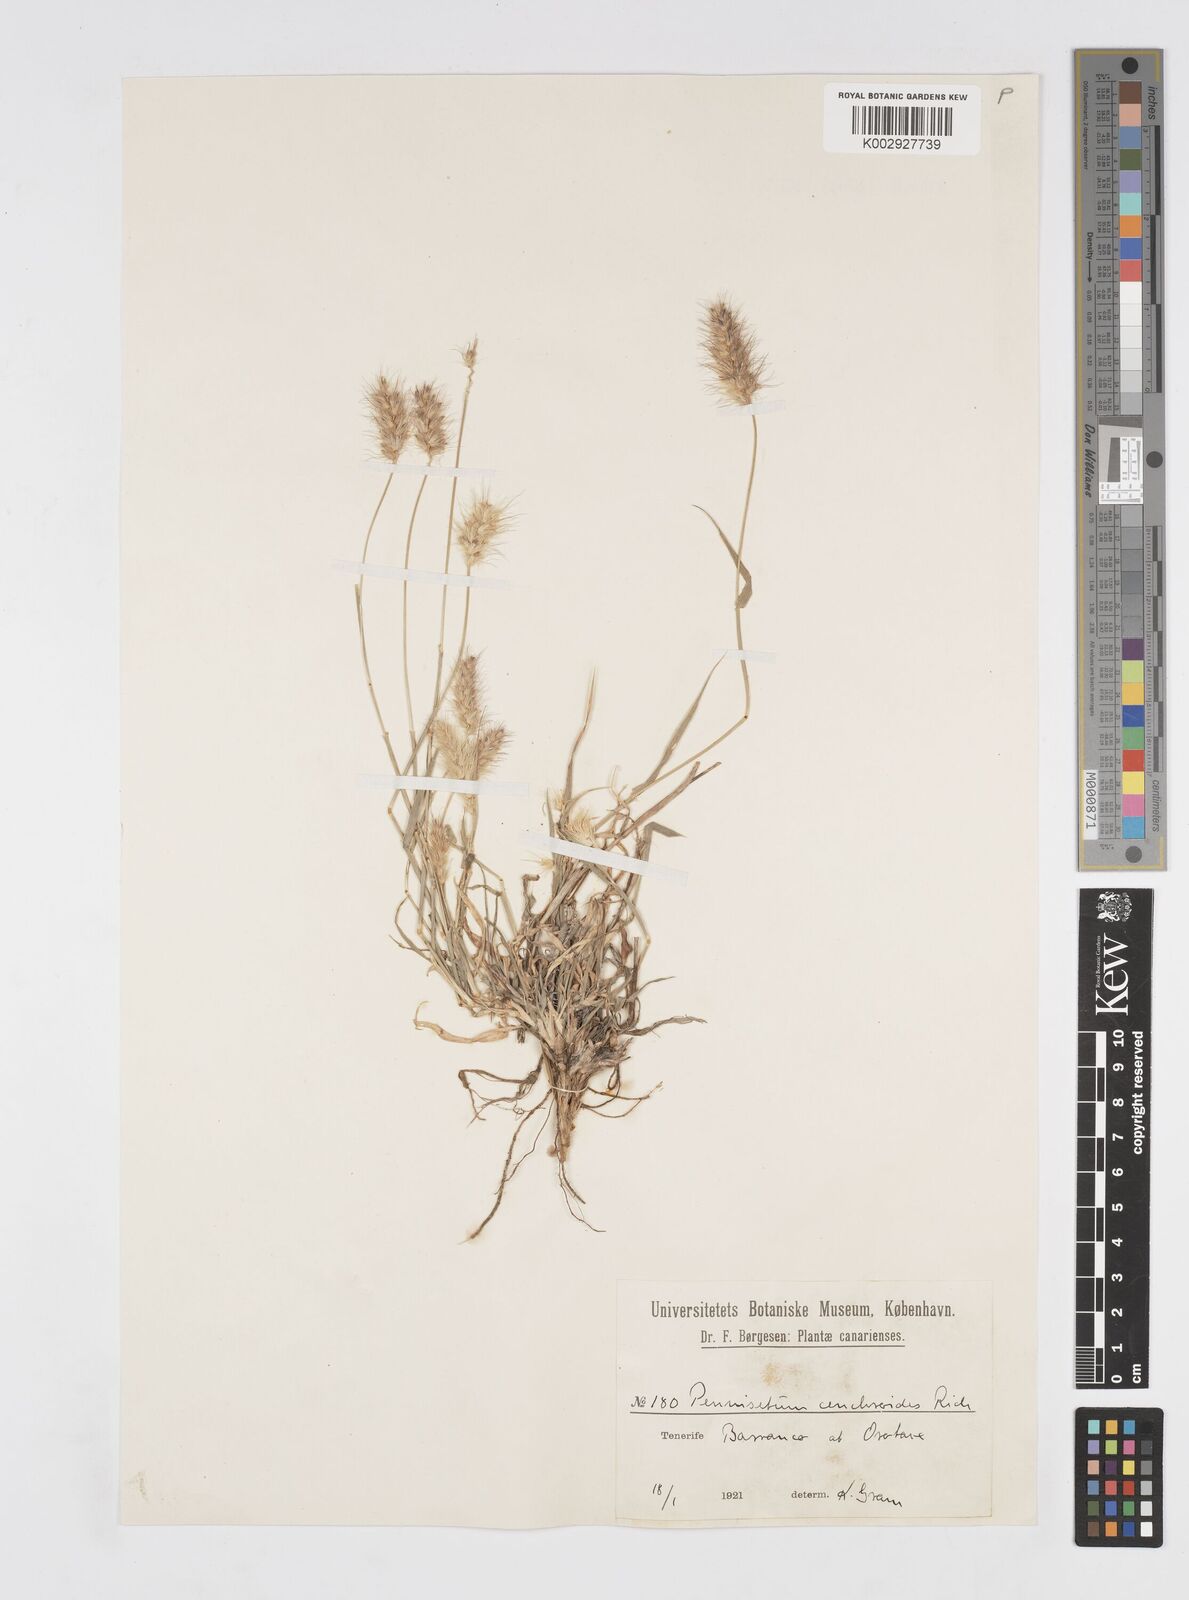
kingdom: Plantae
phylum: Tracheophyta
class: Liliopsida
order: Poales
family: Poaceae
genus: Cenchrus
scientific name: Cenchrus ciliaris
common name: Buffelgrass
